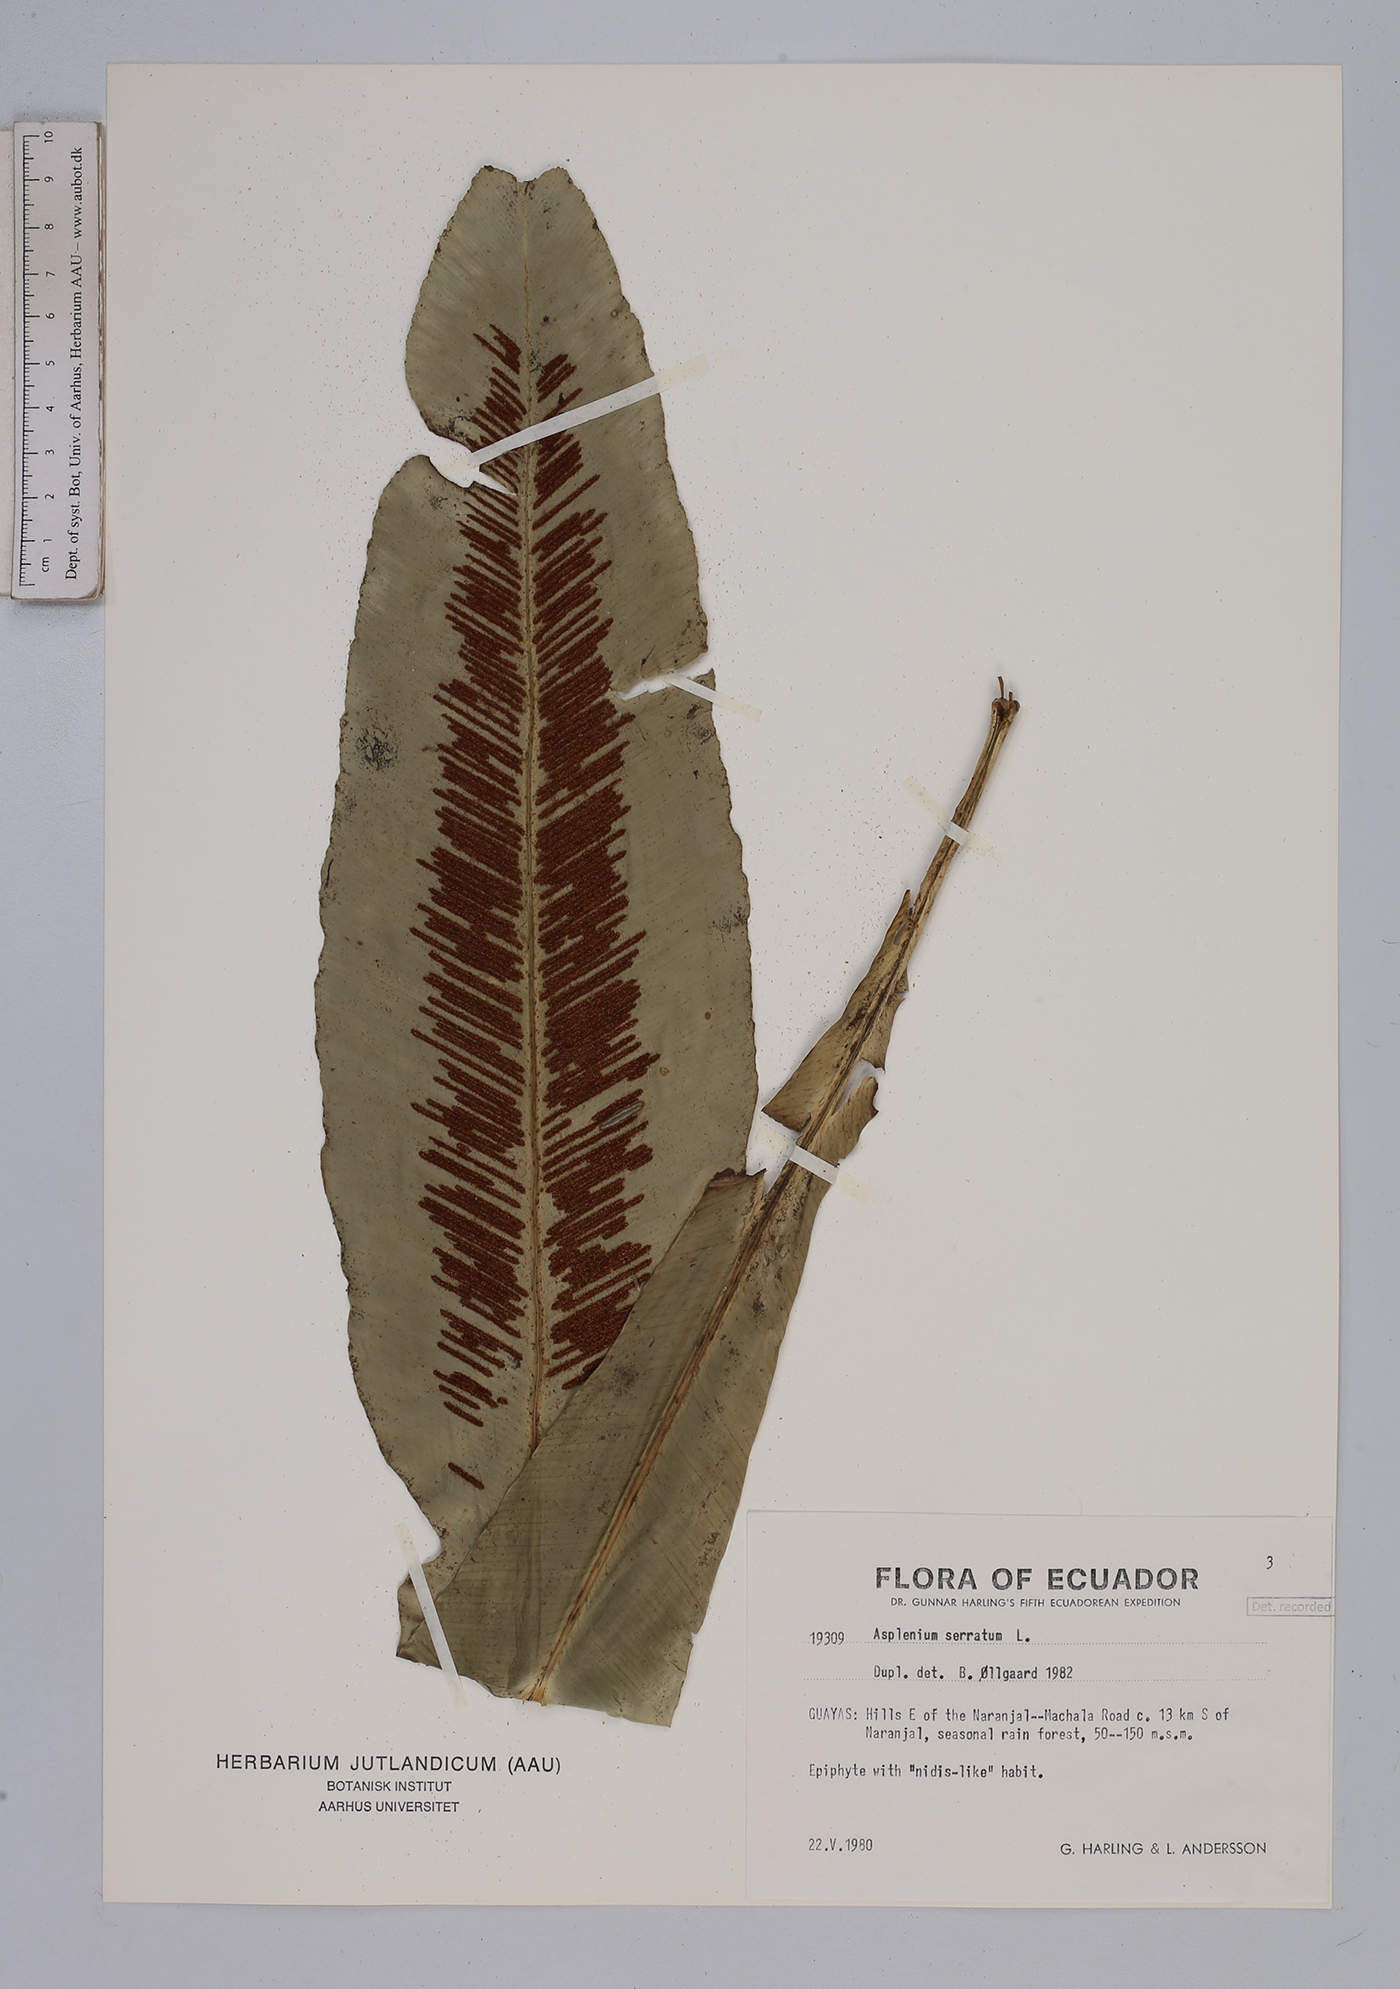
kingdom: Plantae
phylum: Tracheophyta
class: Polypodiopsida
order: Polypodiales
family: Aspleniaceae
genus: Asplenium
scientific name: Asplenium serratum
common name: Wild birdnest fern
